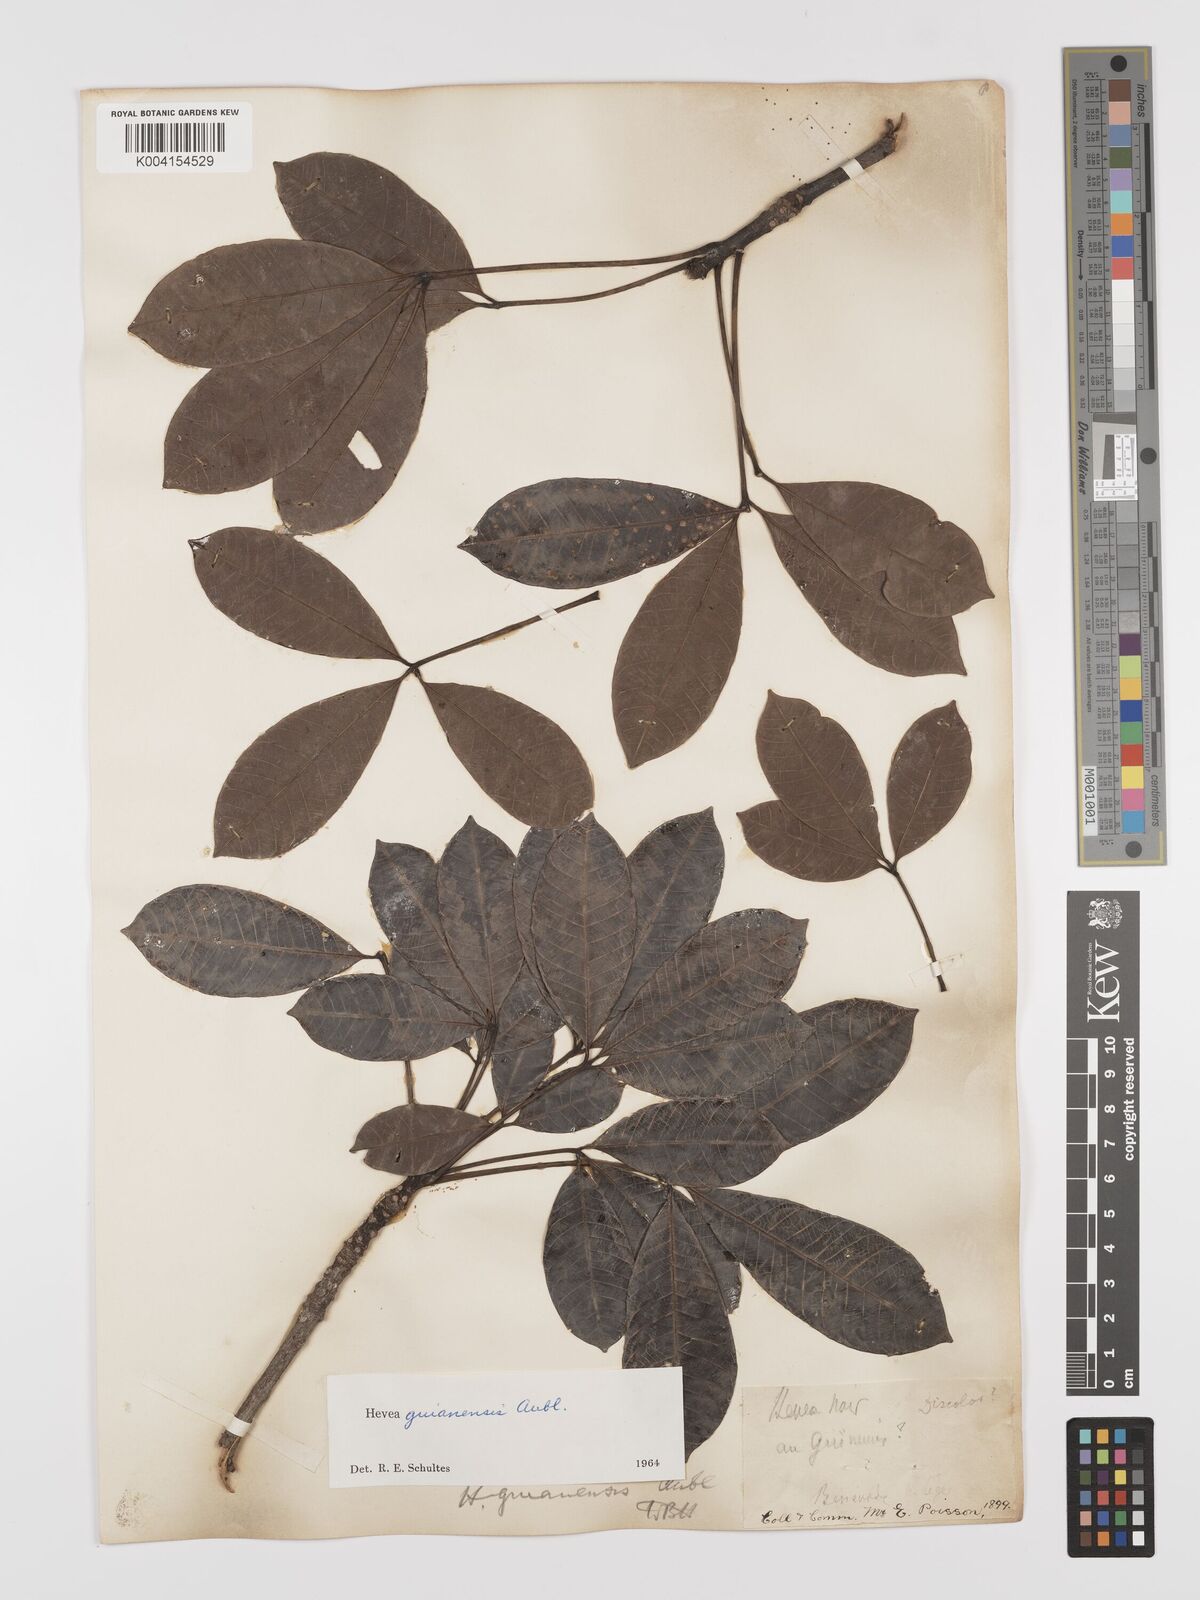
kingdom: Plantae
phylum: Tracheophyta
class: Magnoliopsida
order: Malpighiales
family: Euphorbiaceae
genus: Hevea
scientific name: Hevea guianensis
